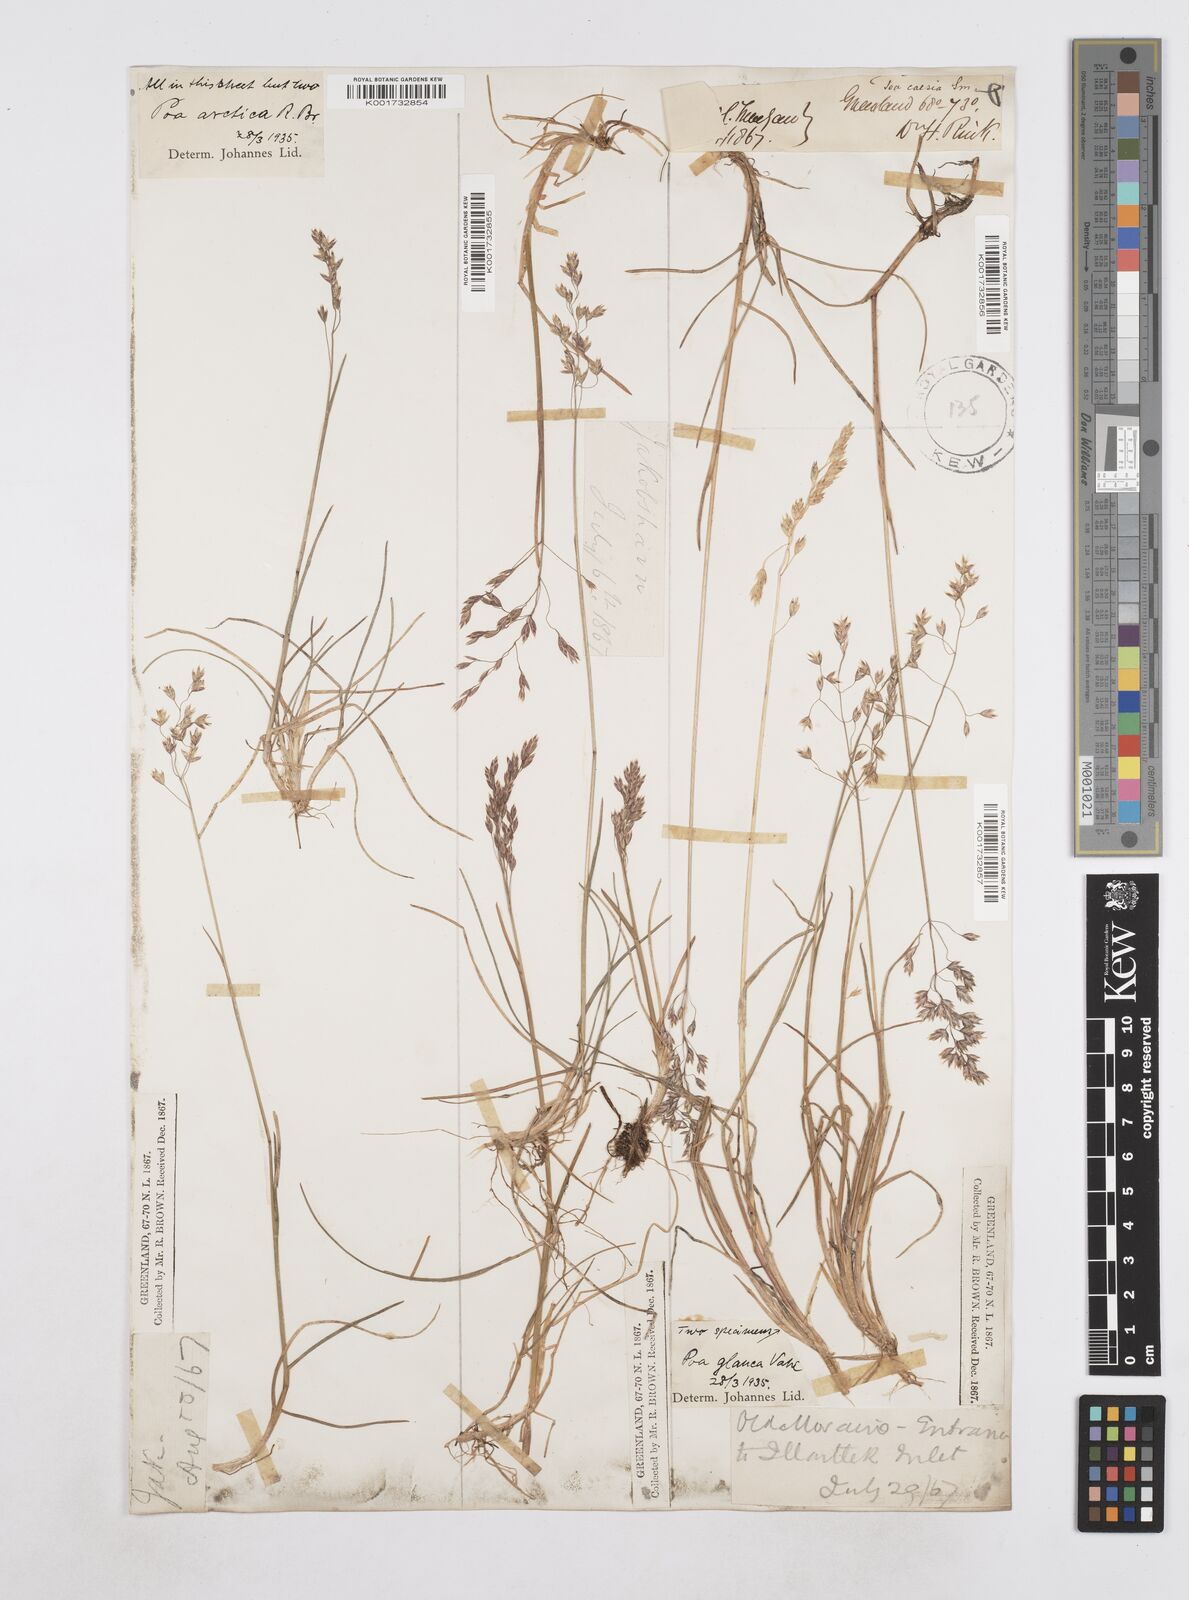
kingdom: Plantae
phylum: Tracheophyta
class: Liliopsida
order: Poales
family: Poaceae
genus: Poa
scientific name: Poa arctica
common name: Arctic bluegrass
